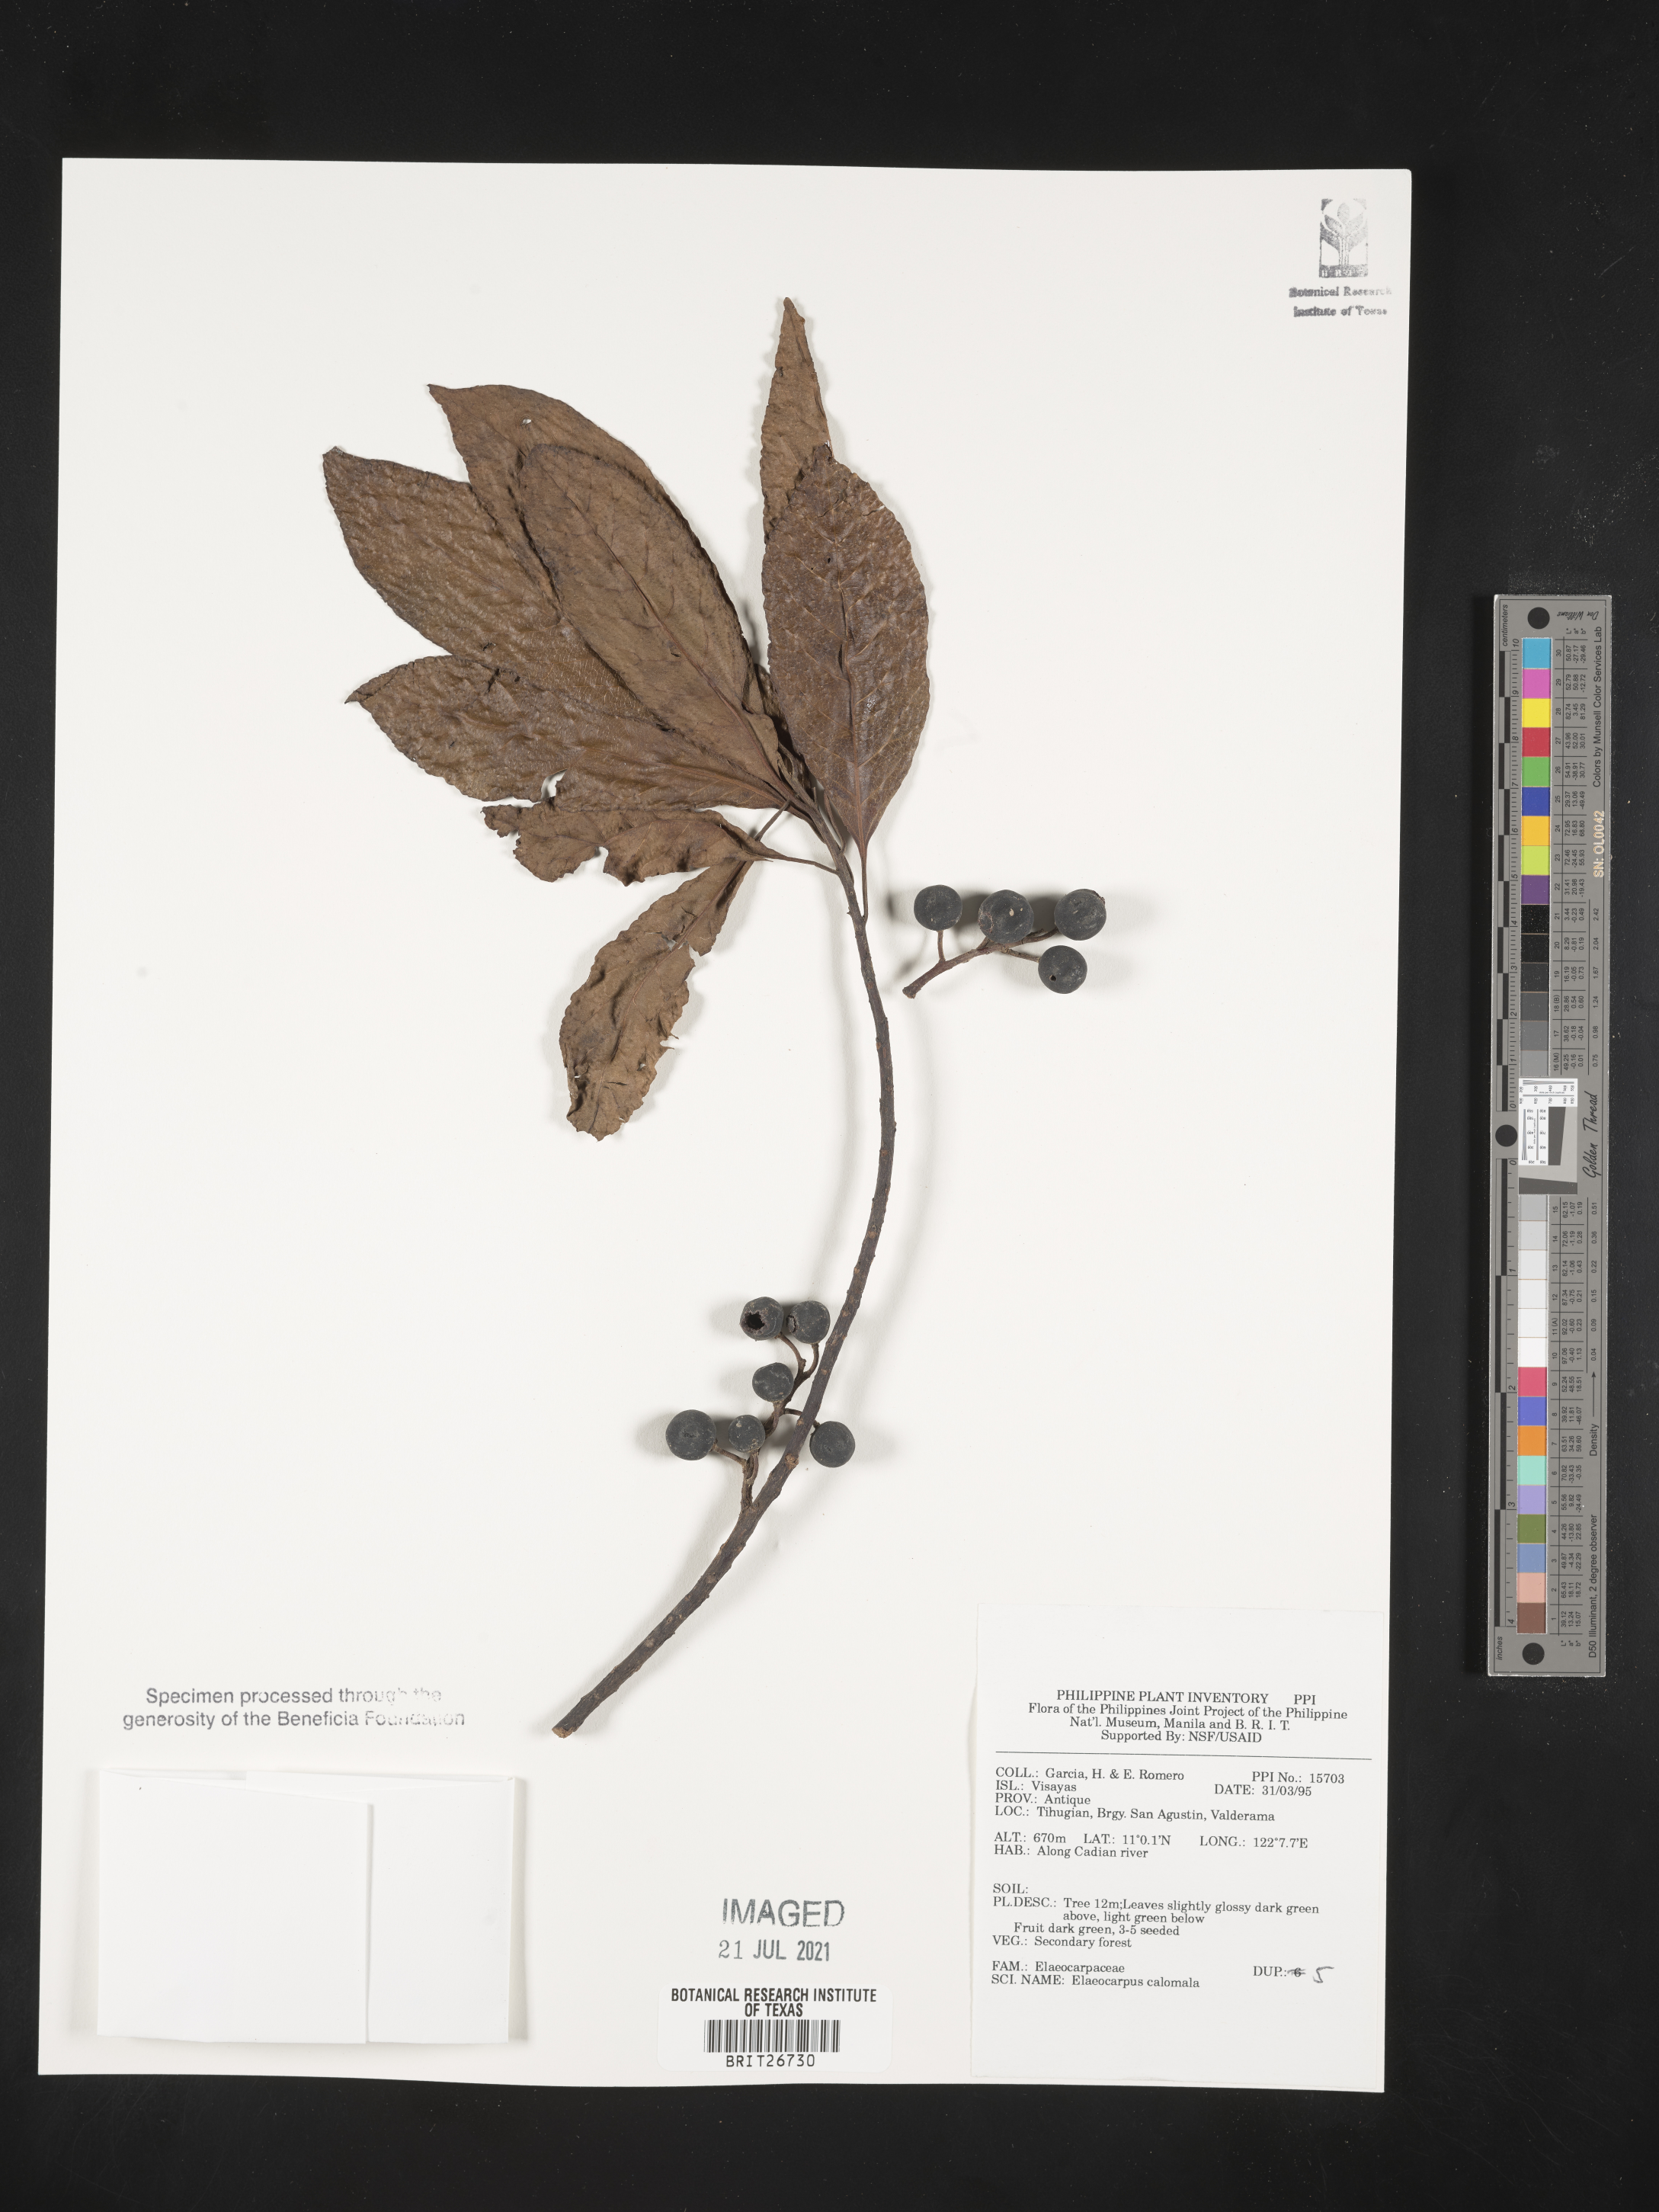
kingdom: Plantae
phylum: Tracheophyta
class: Magnoliopsida
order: Oxalidales
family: Elaeocarpaceae
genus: Elaeocarpus
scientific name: Elaeocarpus calomala
